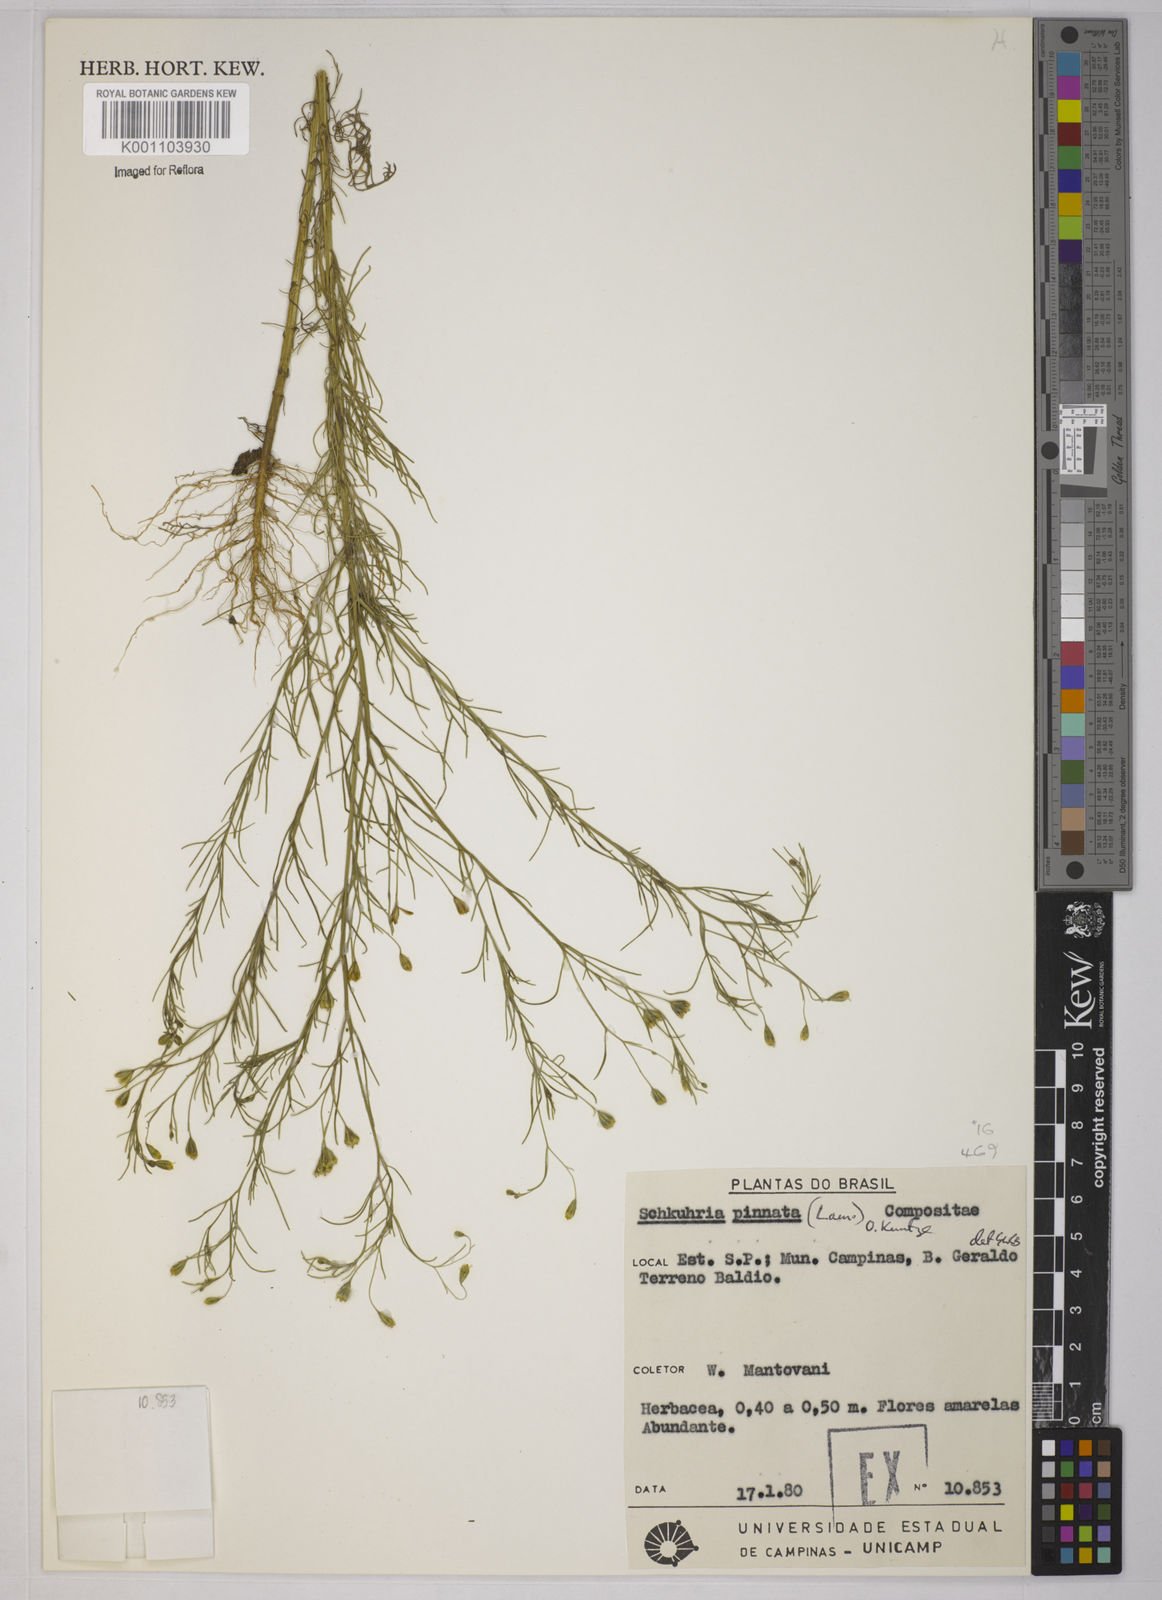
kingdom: Plantae
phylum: Tracheophyta
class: Magnoliopsida
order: Asterales
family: Asteraceae
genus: Schkuhria
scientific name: Schkuhria pinnata
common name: Dwarf marigold
